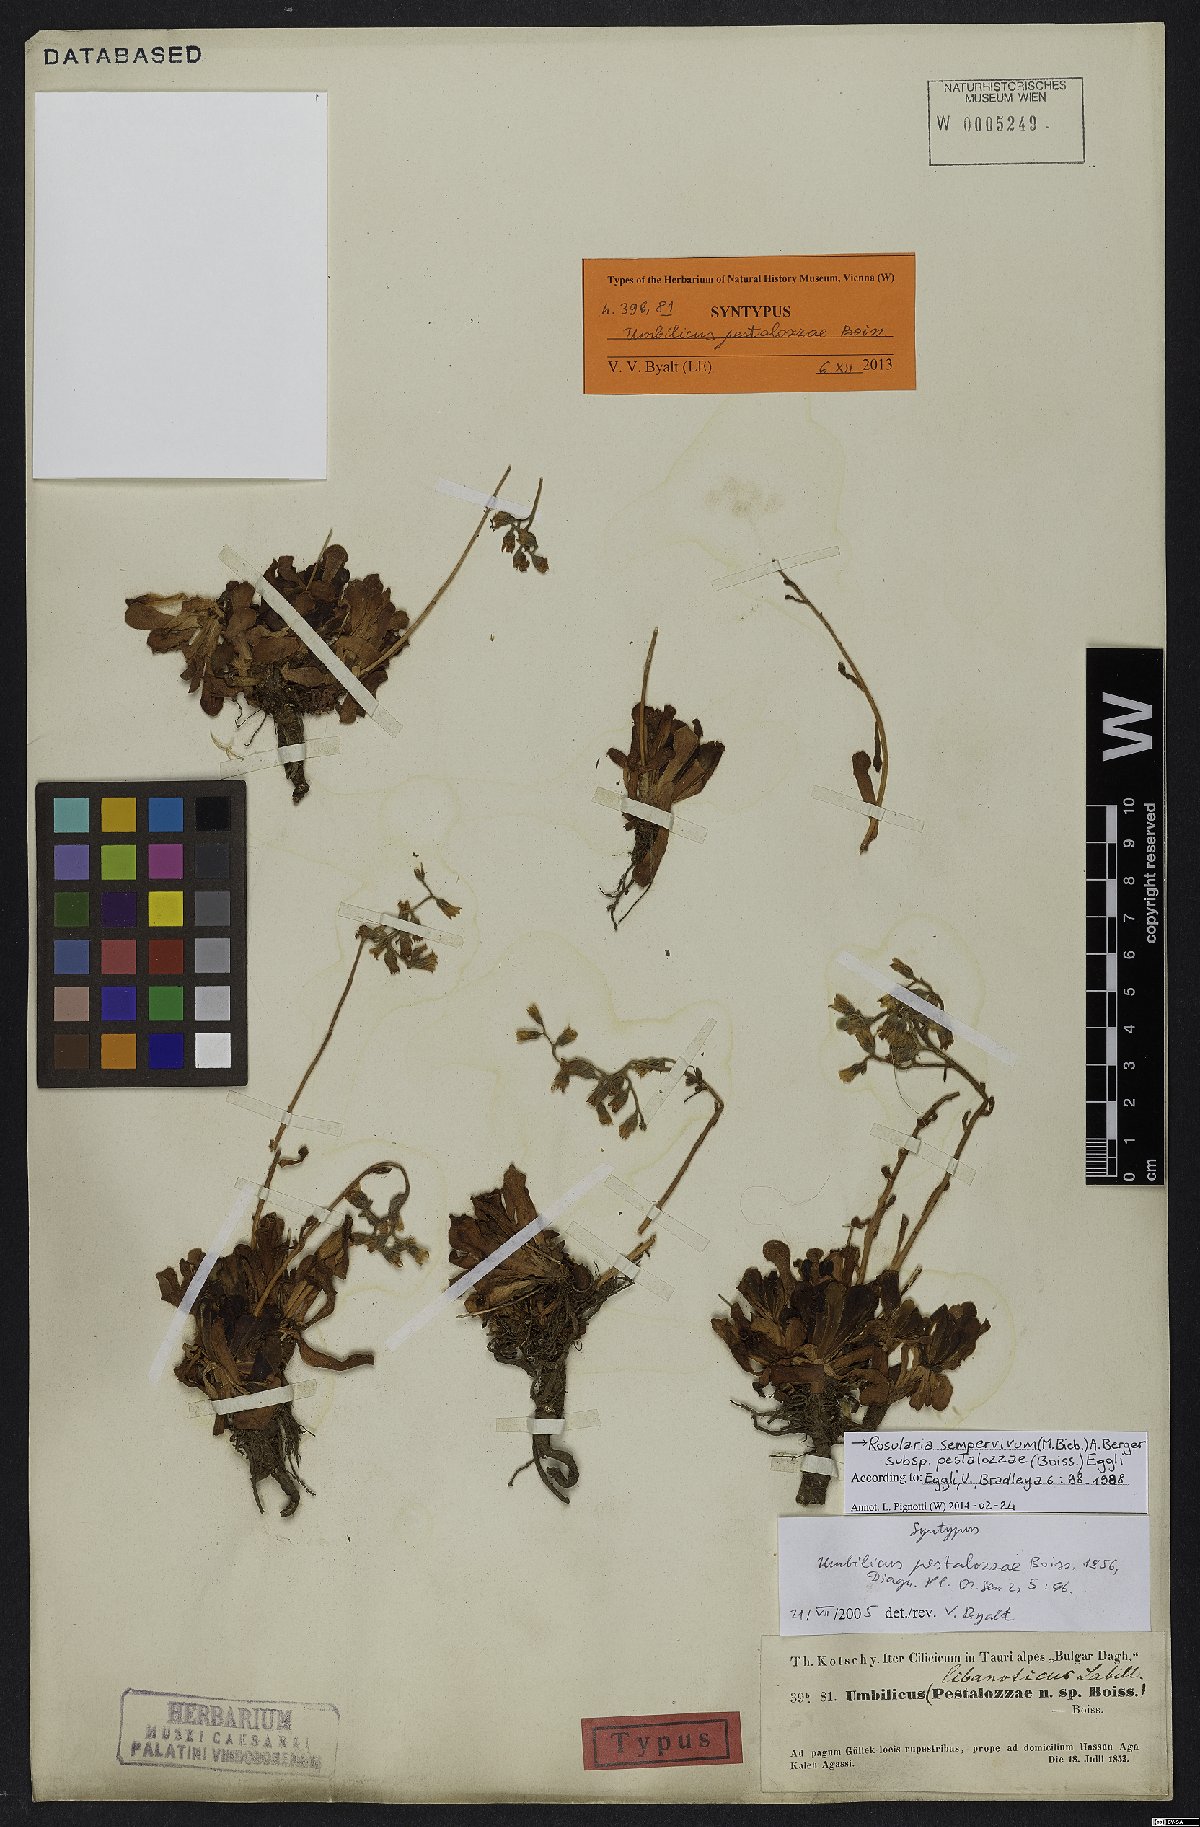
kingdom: Plantae
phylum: Tracheophyta
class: Magnoliopsida
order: Saxifragales
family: Crassulaceae
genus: Rosularia
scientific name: Rosularia sempervivum
